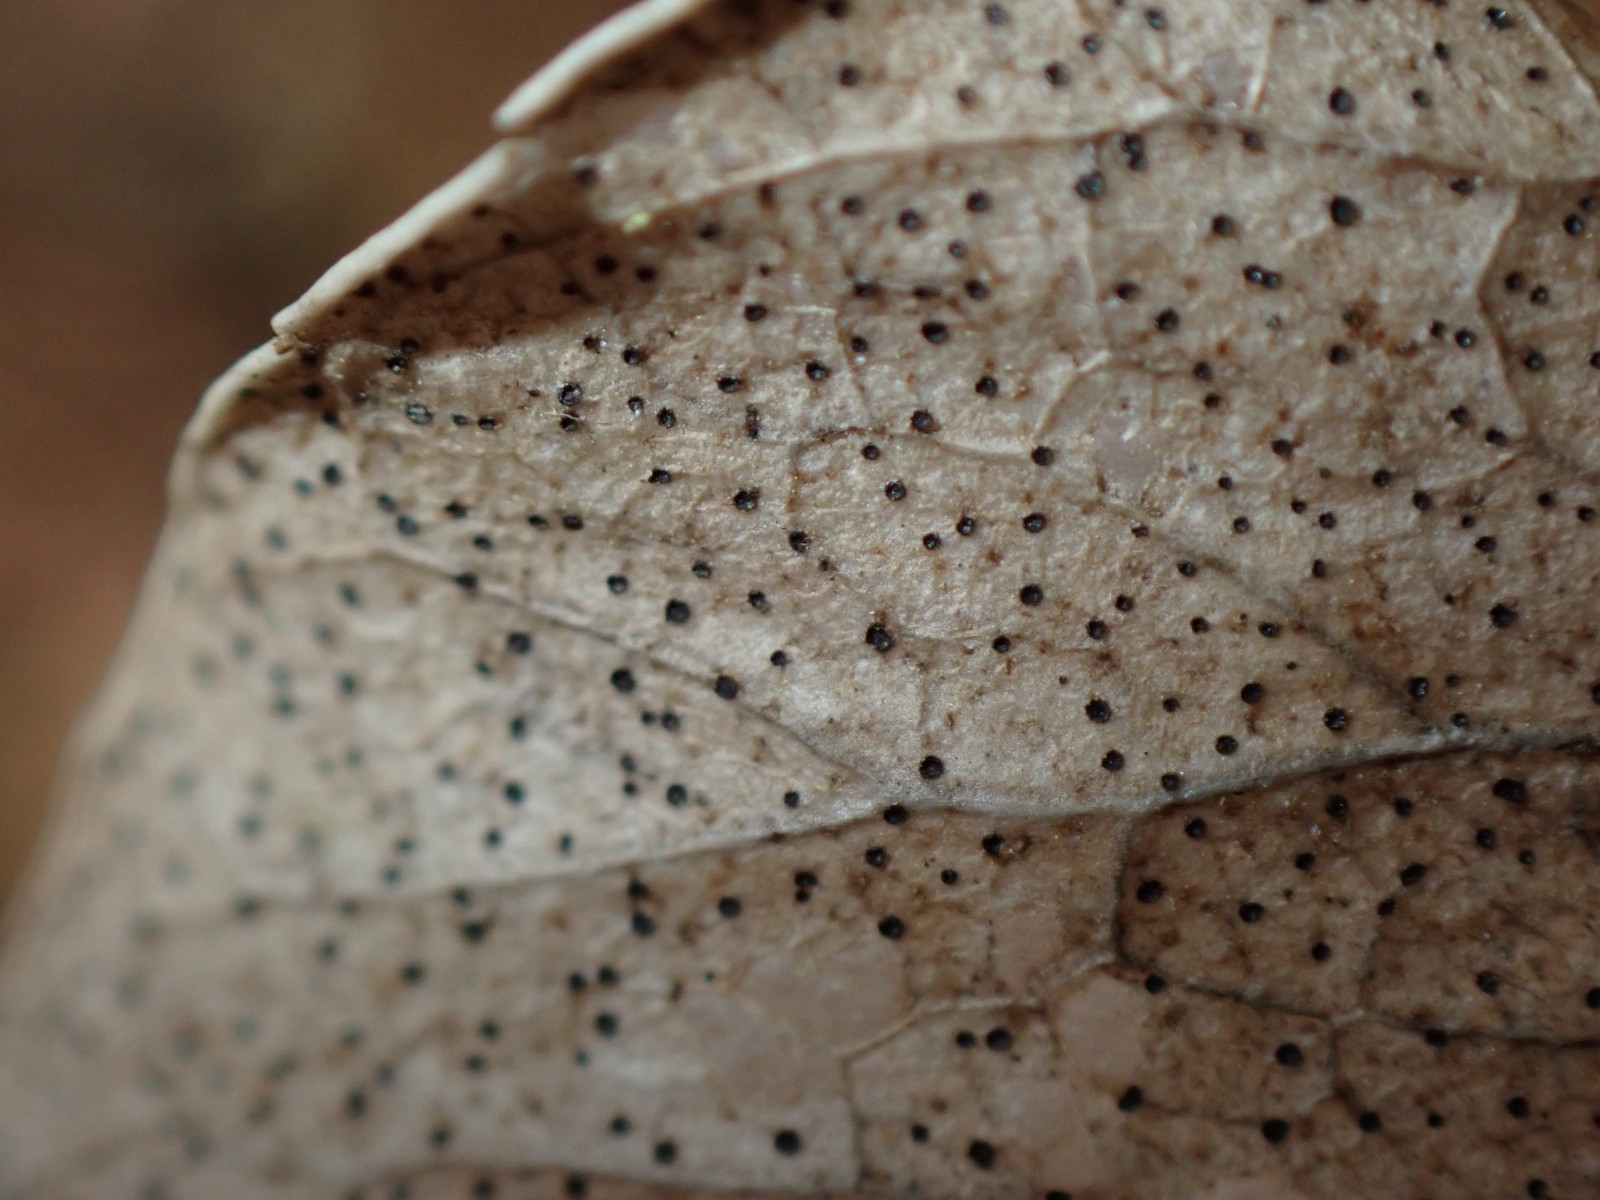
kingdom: Fungi
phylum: Ascomycota
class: Leotiomycetes
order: Helotiales
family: Cenangiaceae
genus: Trochila
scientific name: Trochila craterium
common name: vedbend-lågskive
